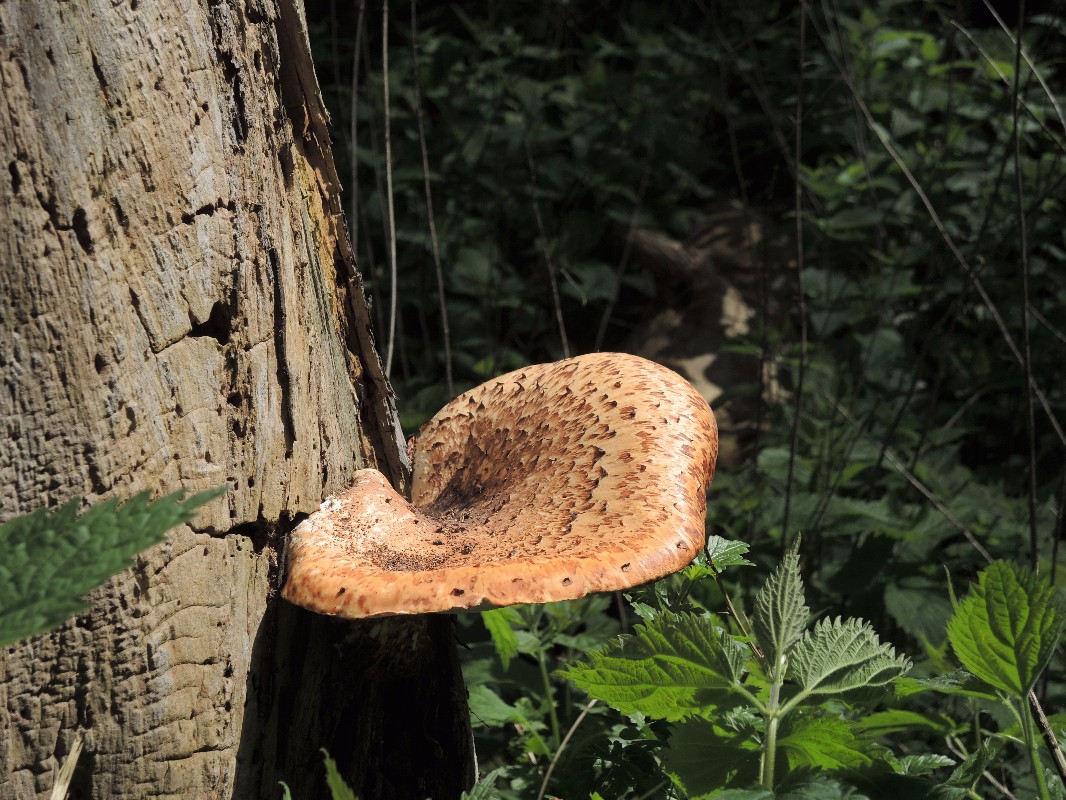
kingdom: Fungi
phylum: Basidiomycota
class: Agaricomycetes
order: Polyporales
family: Polyporaceae
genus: Cerioporus
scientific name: Cerioporus squamosus
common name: skællet stilkporesvamp
